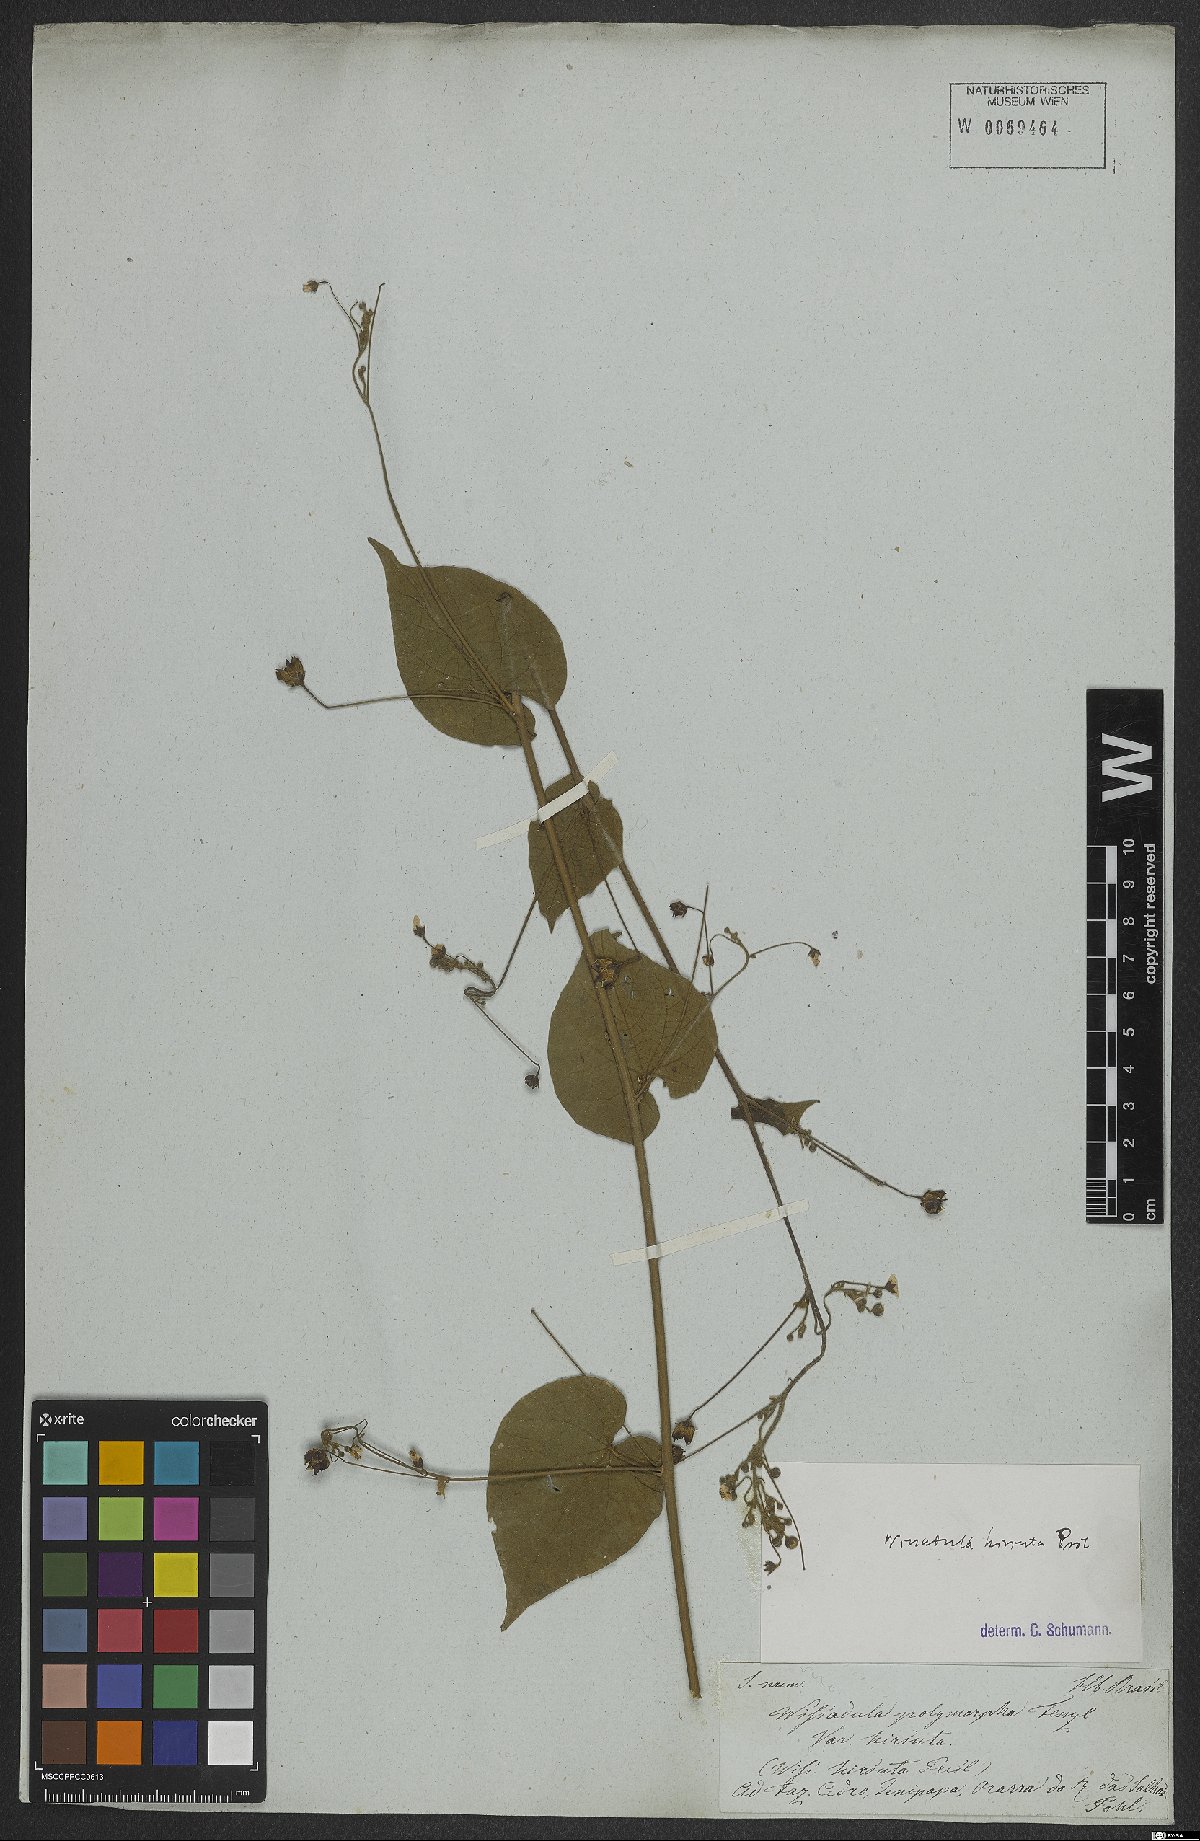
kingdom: Plantae
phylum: Tracheophyta
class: Magnoliopsida
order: Malvales
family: Malvaceae
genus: Wissadula
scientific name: Wissadula amplissima
